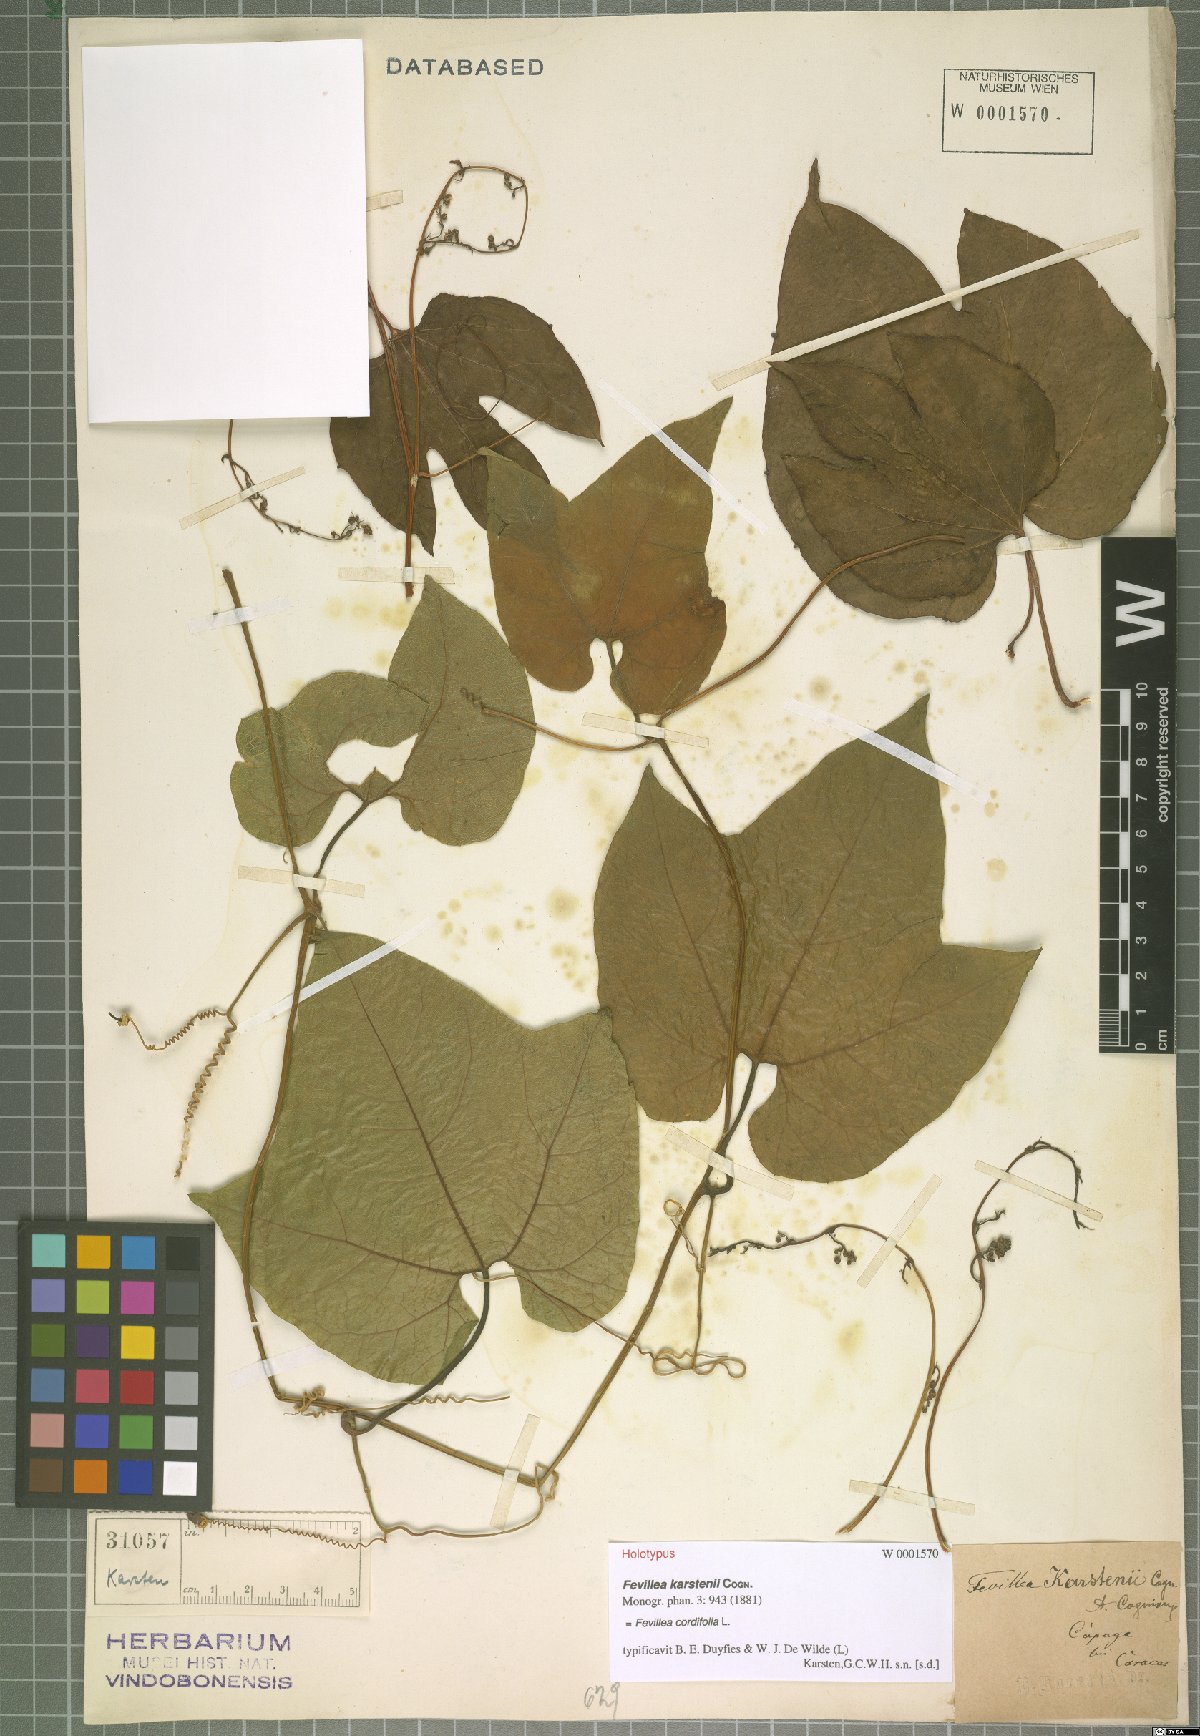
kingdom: Plantae
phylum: Tracheophyta
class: Magnoliopsida
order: Cucurbitales
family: Cucurbitaceae
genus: Fevillea
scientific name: Fevillea cordifolia
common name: Antidote-vine
